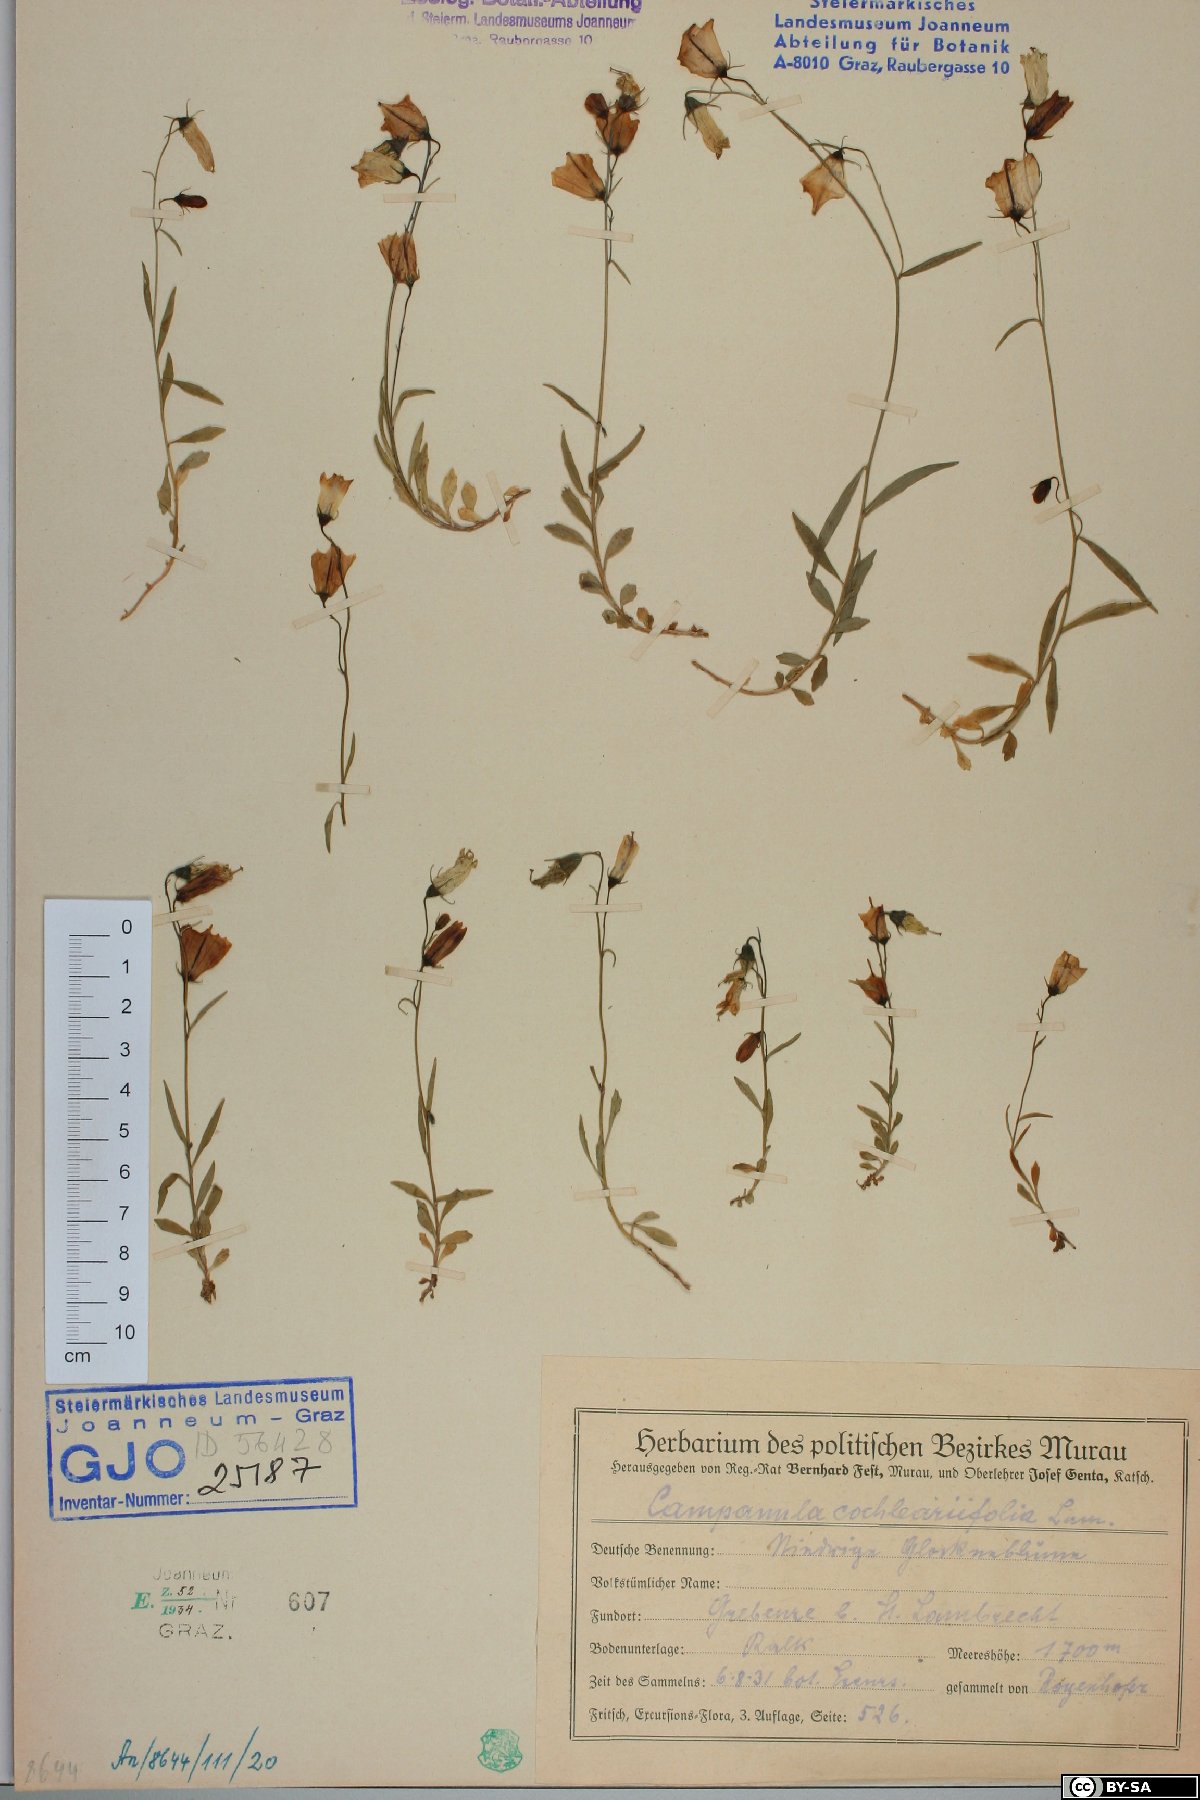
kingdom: Plantae
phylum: Tracheophyta
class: Magnoliopsida
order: Asterales
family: Campanulaceae
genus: Campanula
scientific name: Campanula cochleariifolia
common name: Fairies'-thimbles
